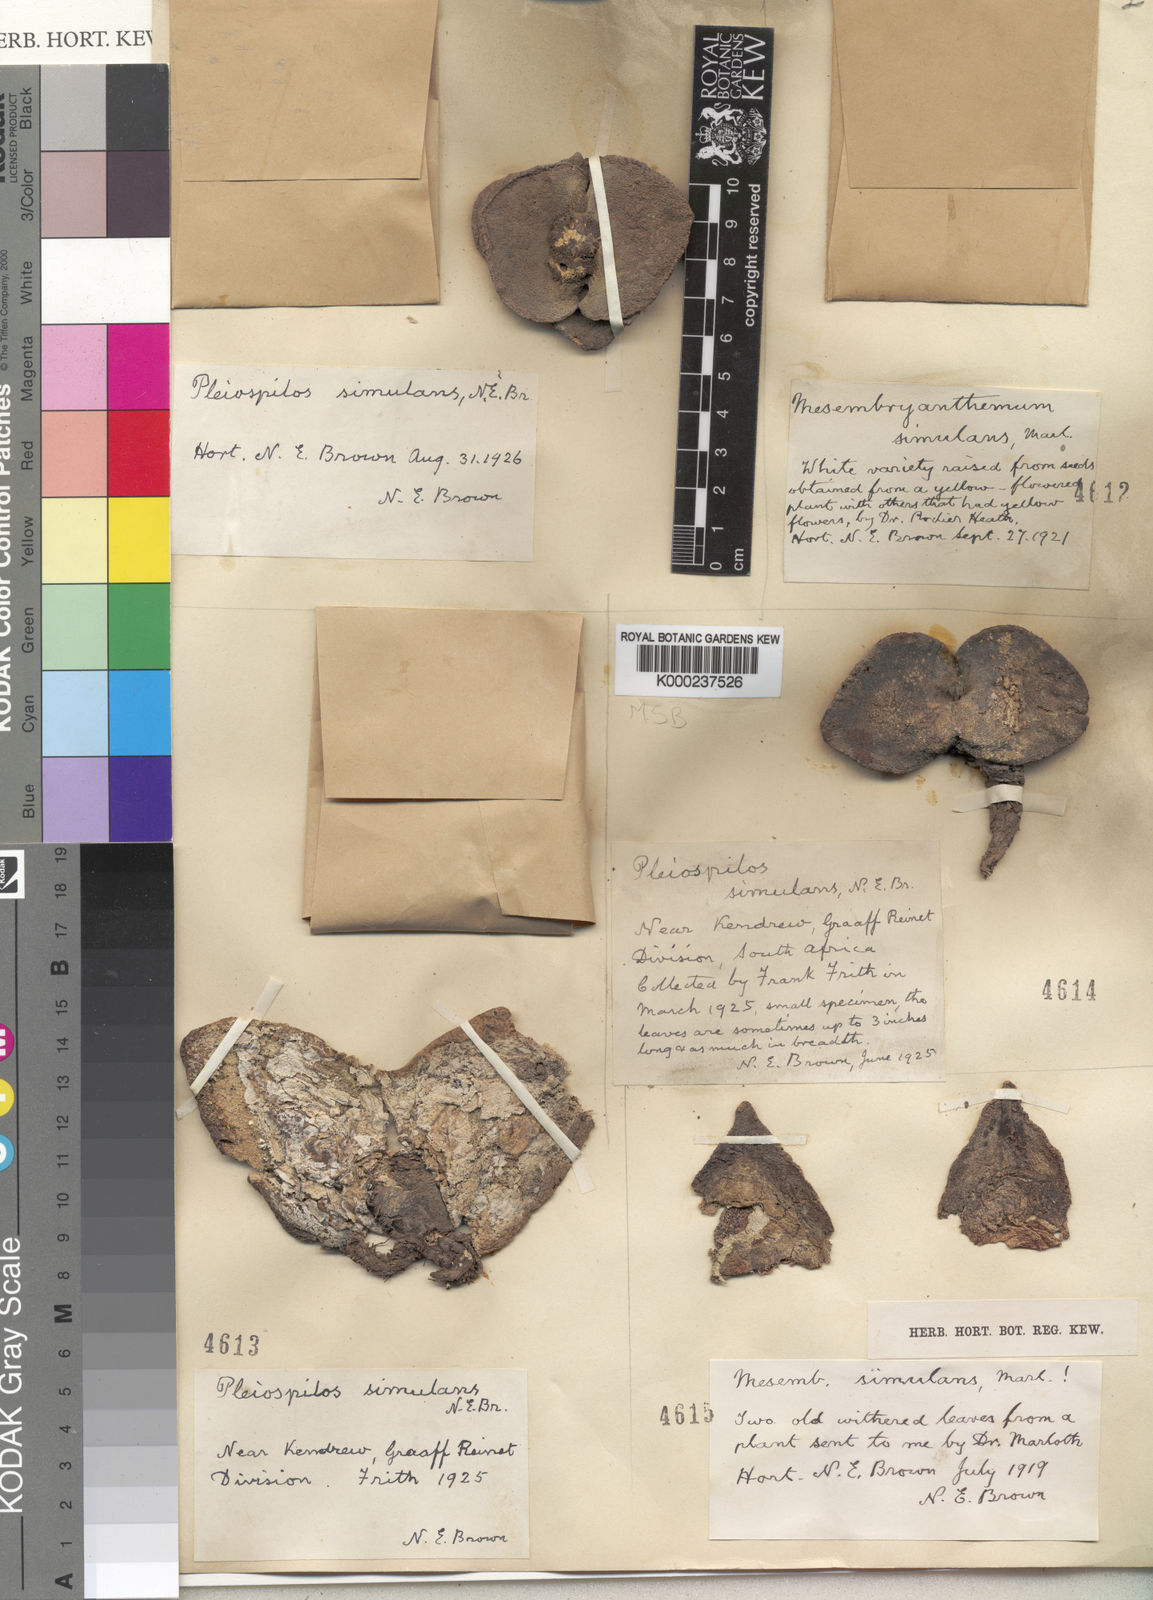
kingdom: Plantae
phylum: Tracheophyta
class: Magnoliopsida
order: Caryophyllales
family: Aizoaceae
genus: Pleiospilos
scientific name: Pleiospilos simulans
